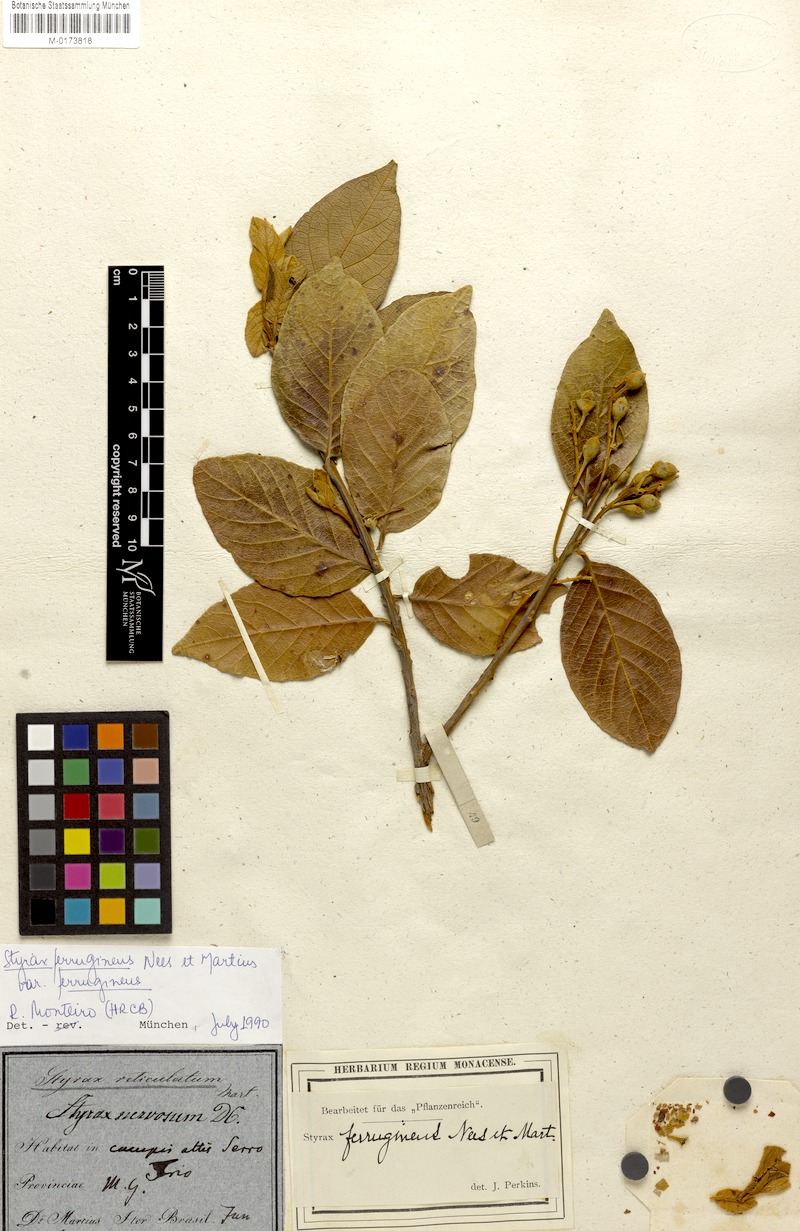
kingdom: Plantae
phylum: Tracheophyta
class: Magnoliopsida
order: Ericales
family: Styracaceae
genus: Styrax
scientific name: Styrax ferrugineus
